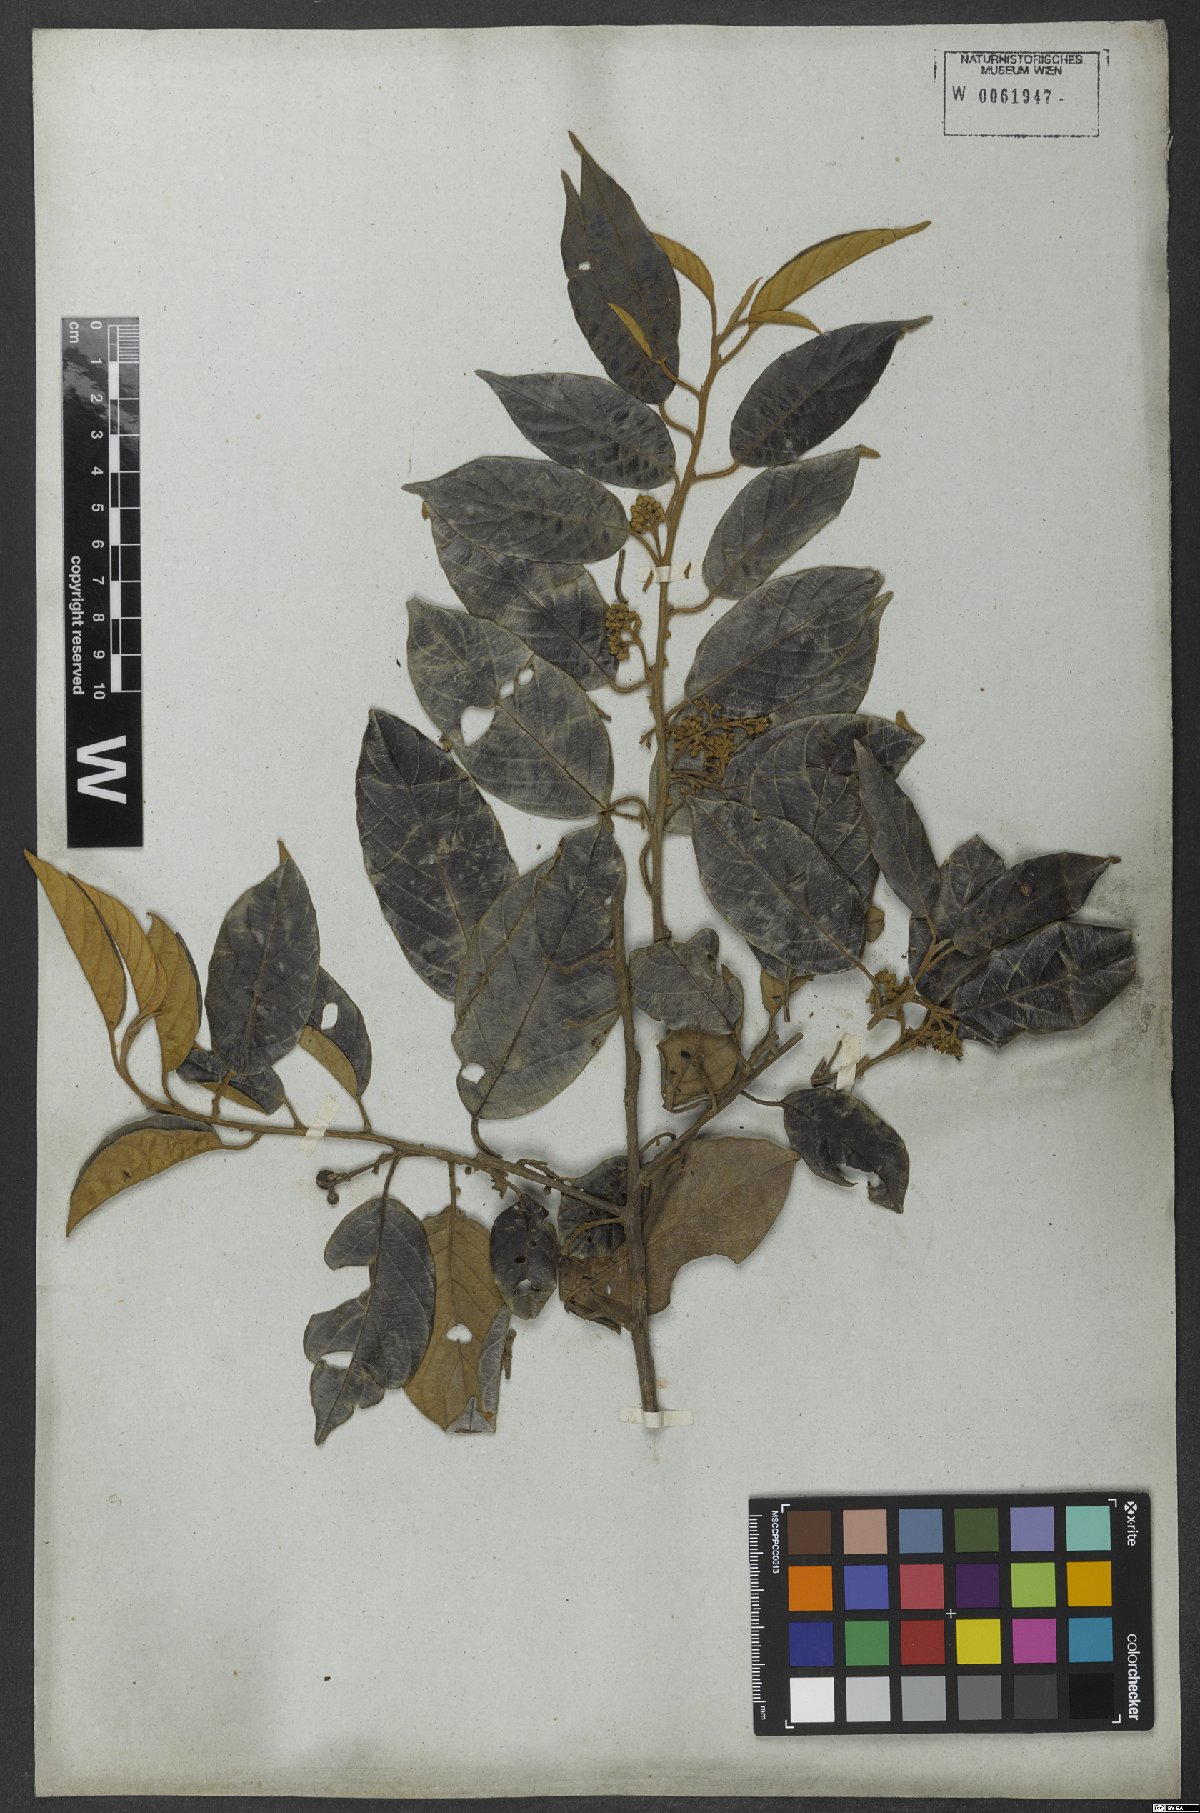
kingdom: Plantae
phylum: Tracheophyta
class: Magnoliopsida
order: Metteniusales
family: Metteniusaceae
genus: Emmotum
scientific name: Emmotum nitens
